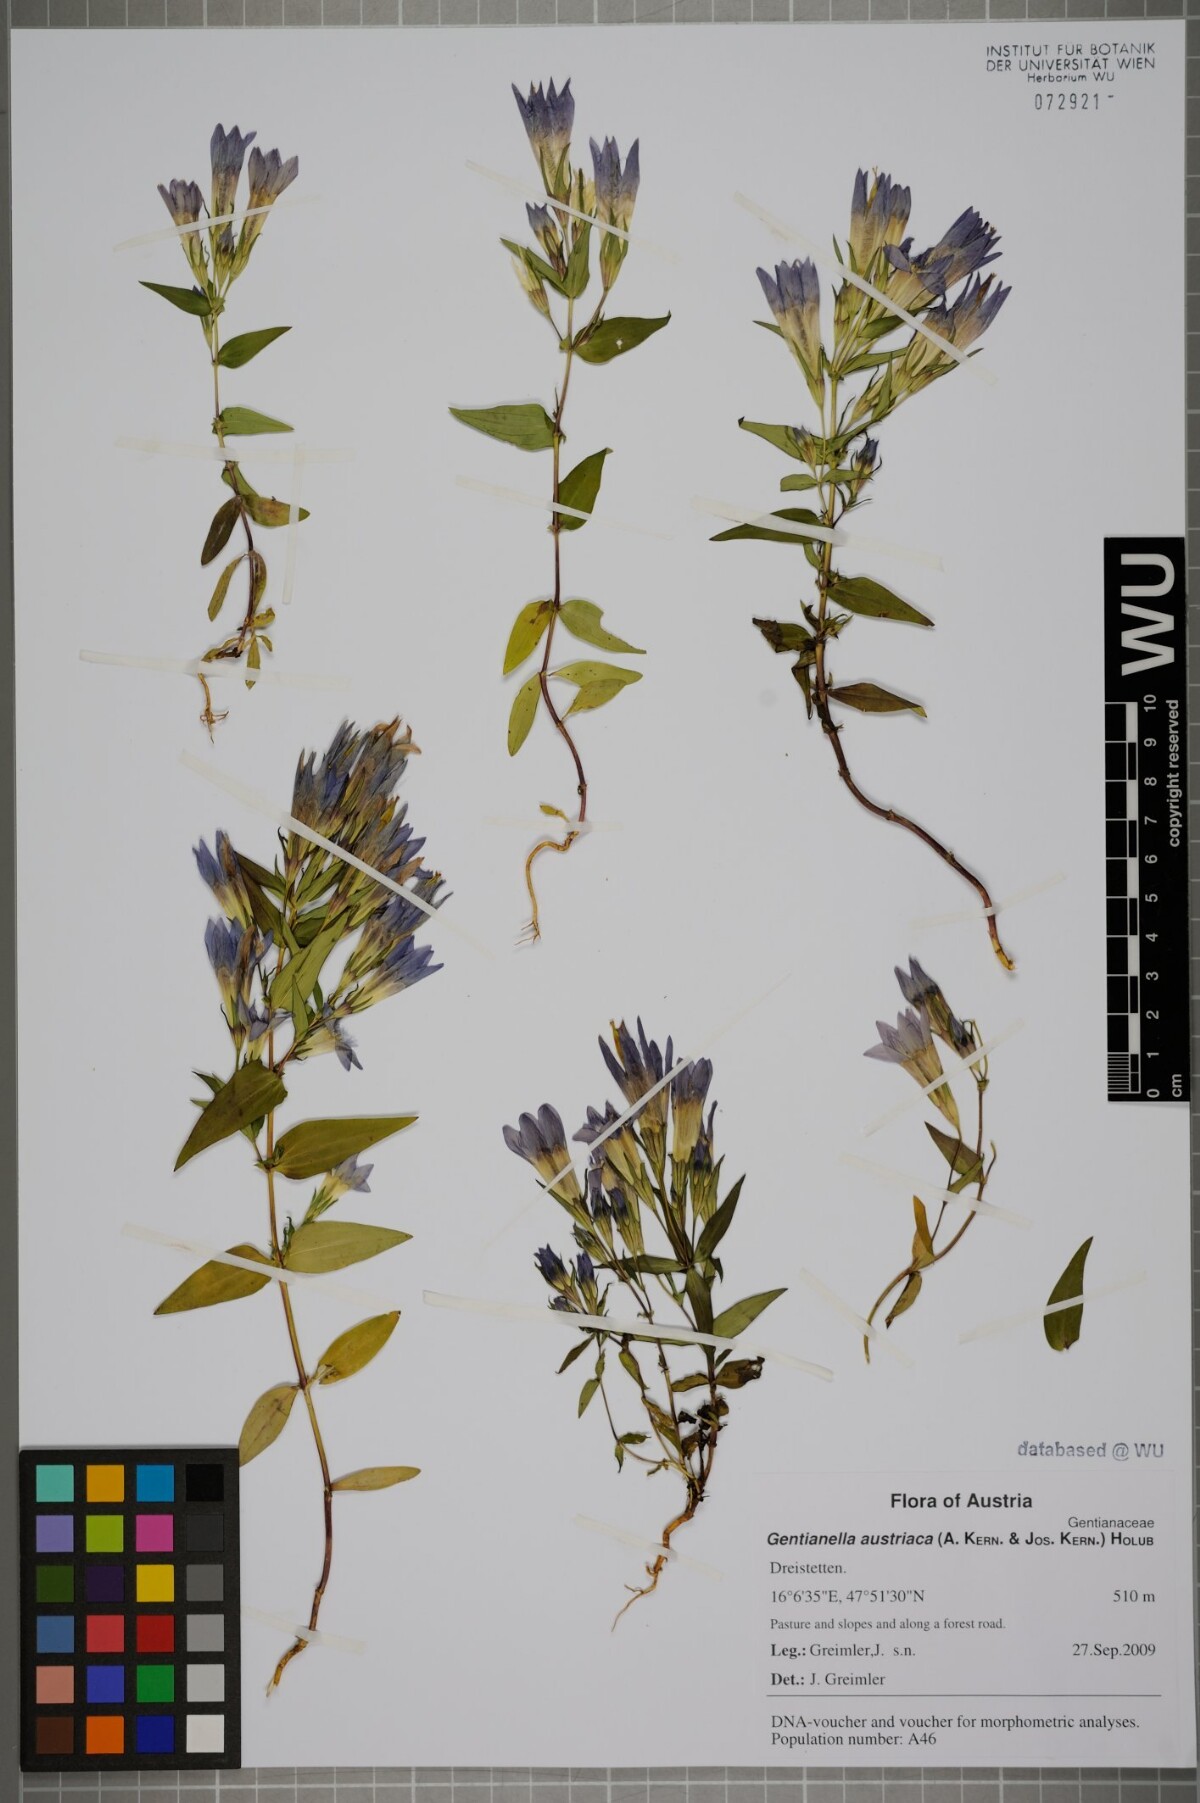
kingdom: Plantae
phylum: Tracheophyta
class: Magnoliopsida
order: Gentianales
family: Gentianaceae
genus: Gentianella
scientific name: Gentianella austriaca
